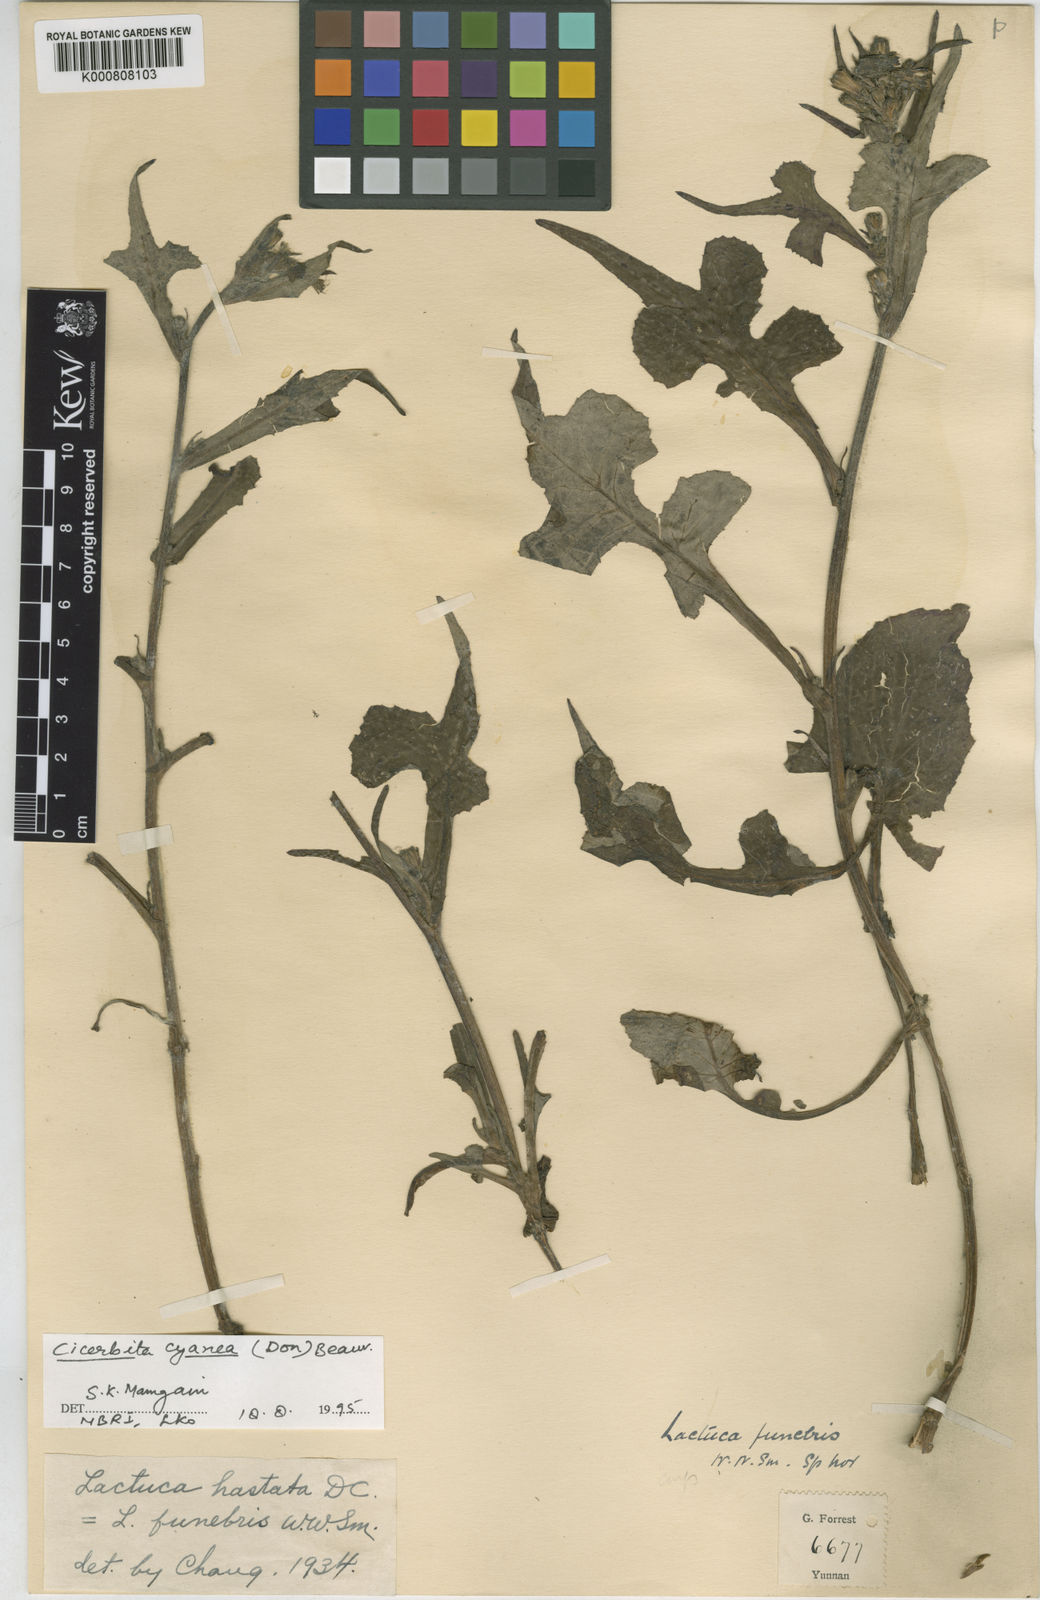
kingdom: Plantae
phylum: Tracheophyta
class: Magnoliopsida
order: Asterales
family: Asteraceae
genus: Melanoseris
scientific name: Melanoseris cyanea
